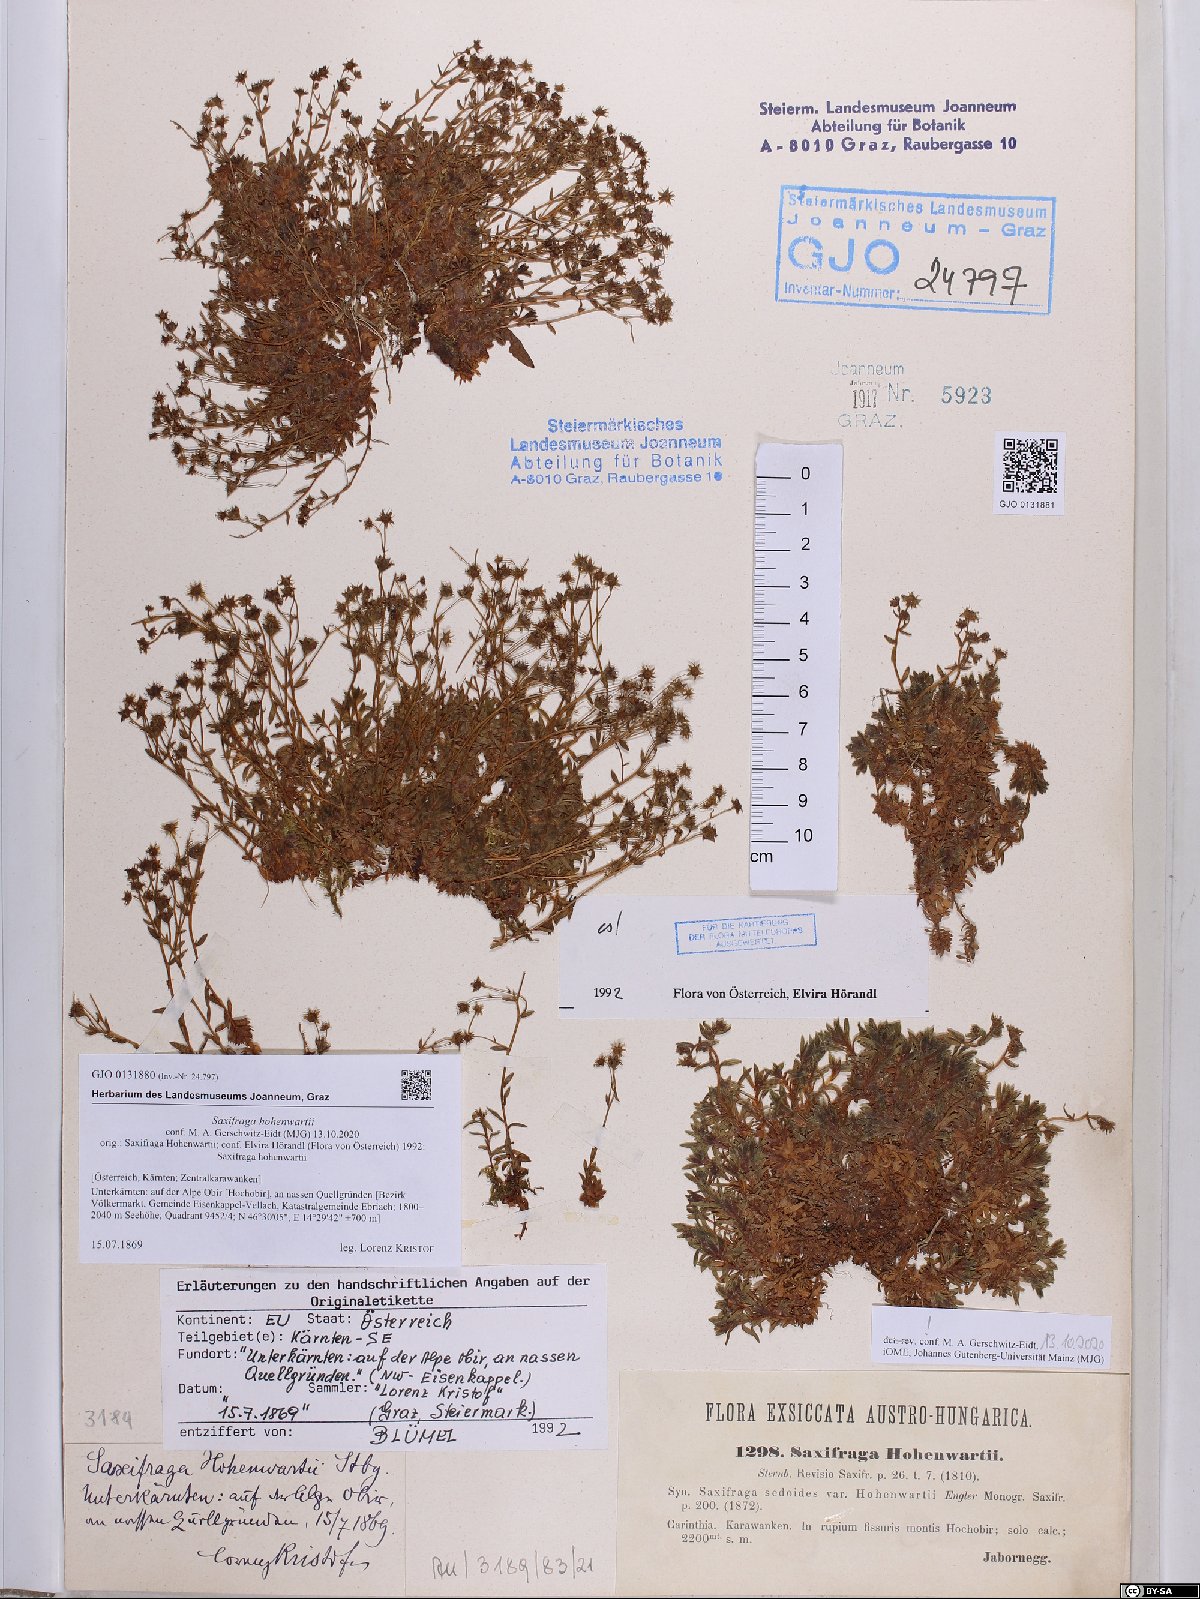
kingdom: Plantae
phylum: Tracheophyta
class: Magnoliopsida
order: Saxifragales
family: Saxifragaceae
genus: Saxifraga
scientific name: Saxifraga hohenwartii
